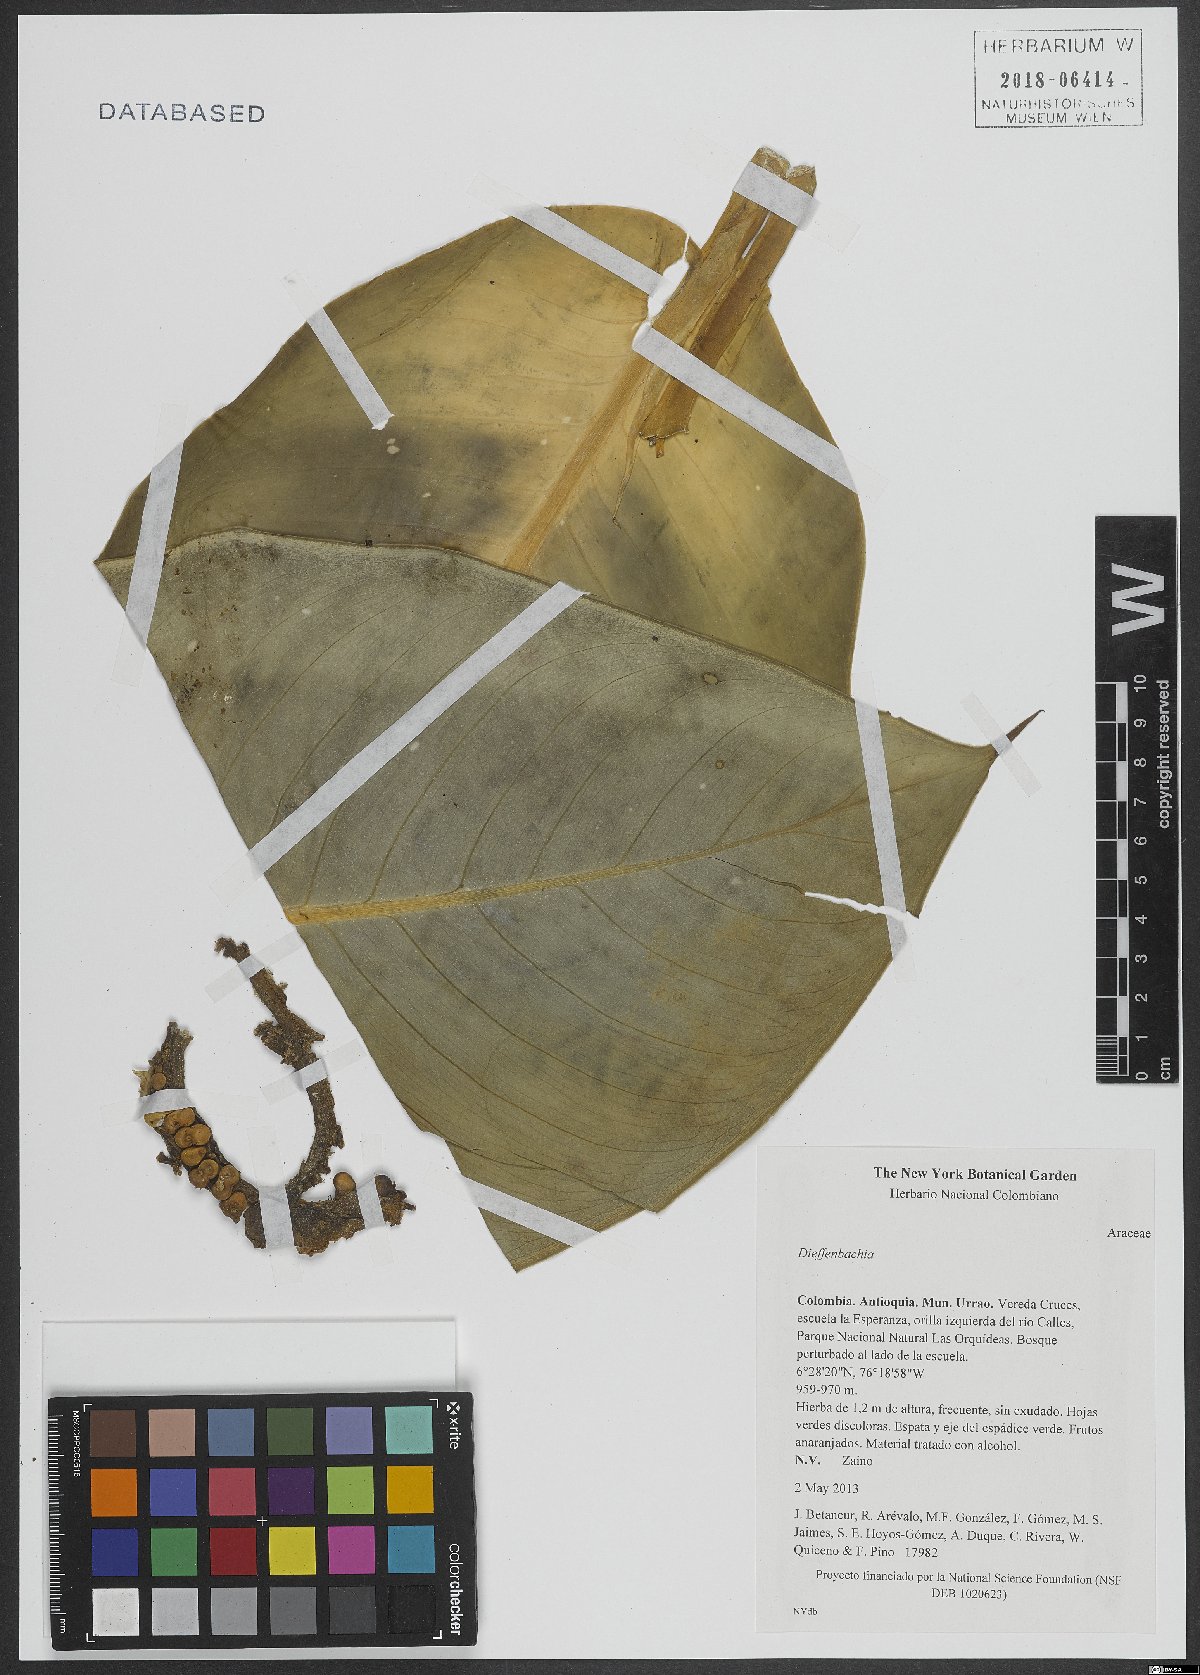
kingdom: Plantae
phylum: Tracheophyta
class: Liliopsida
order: Alismatales
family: Araceae
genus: Dieffenbachia
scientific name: Dieffenbachia
